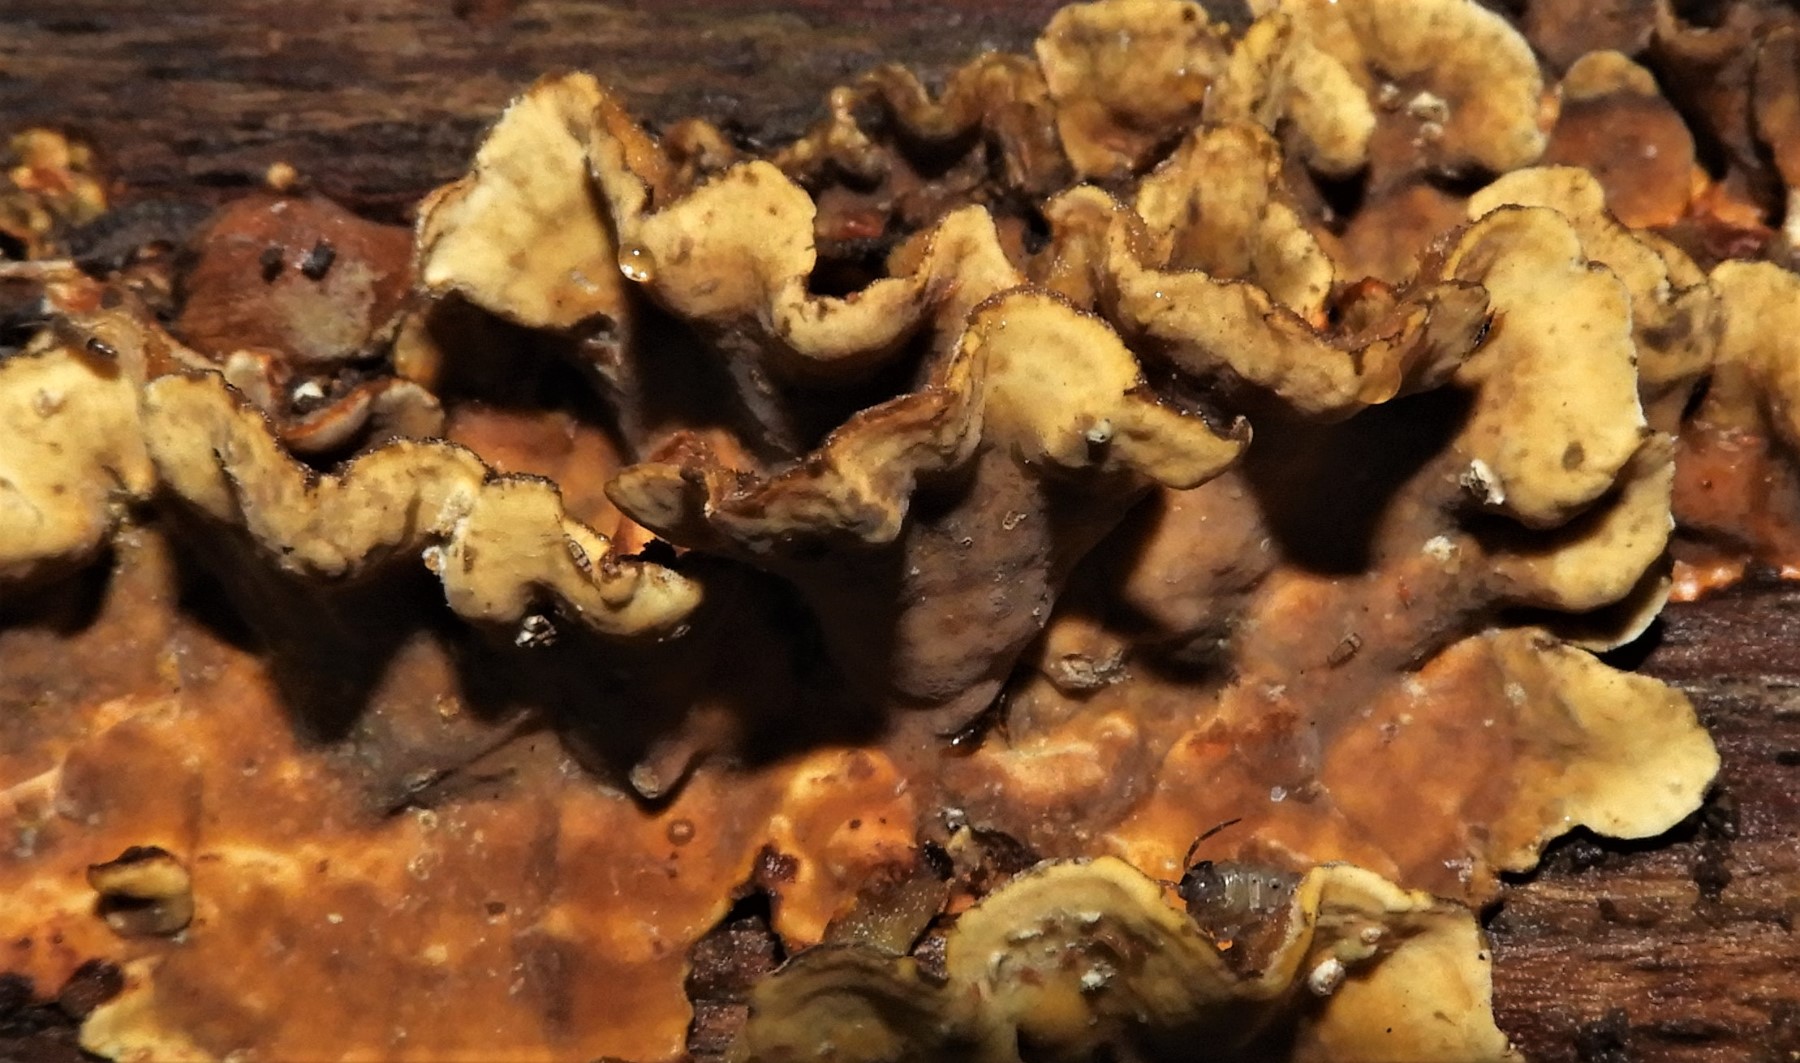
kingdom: Fungi
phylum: Basidiomycota
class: Agaricomycetes
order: Russulales
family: Stereaceae
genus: Stereum
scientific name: Stereum hirsutum
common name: håret lædersvamp
